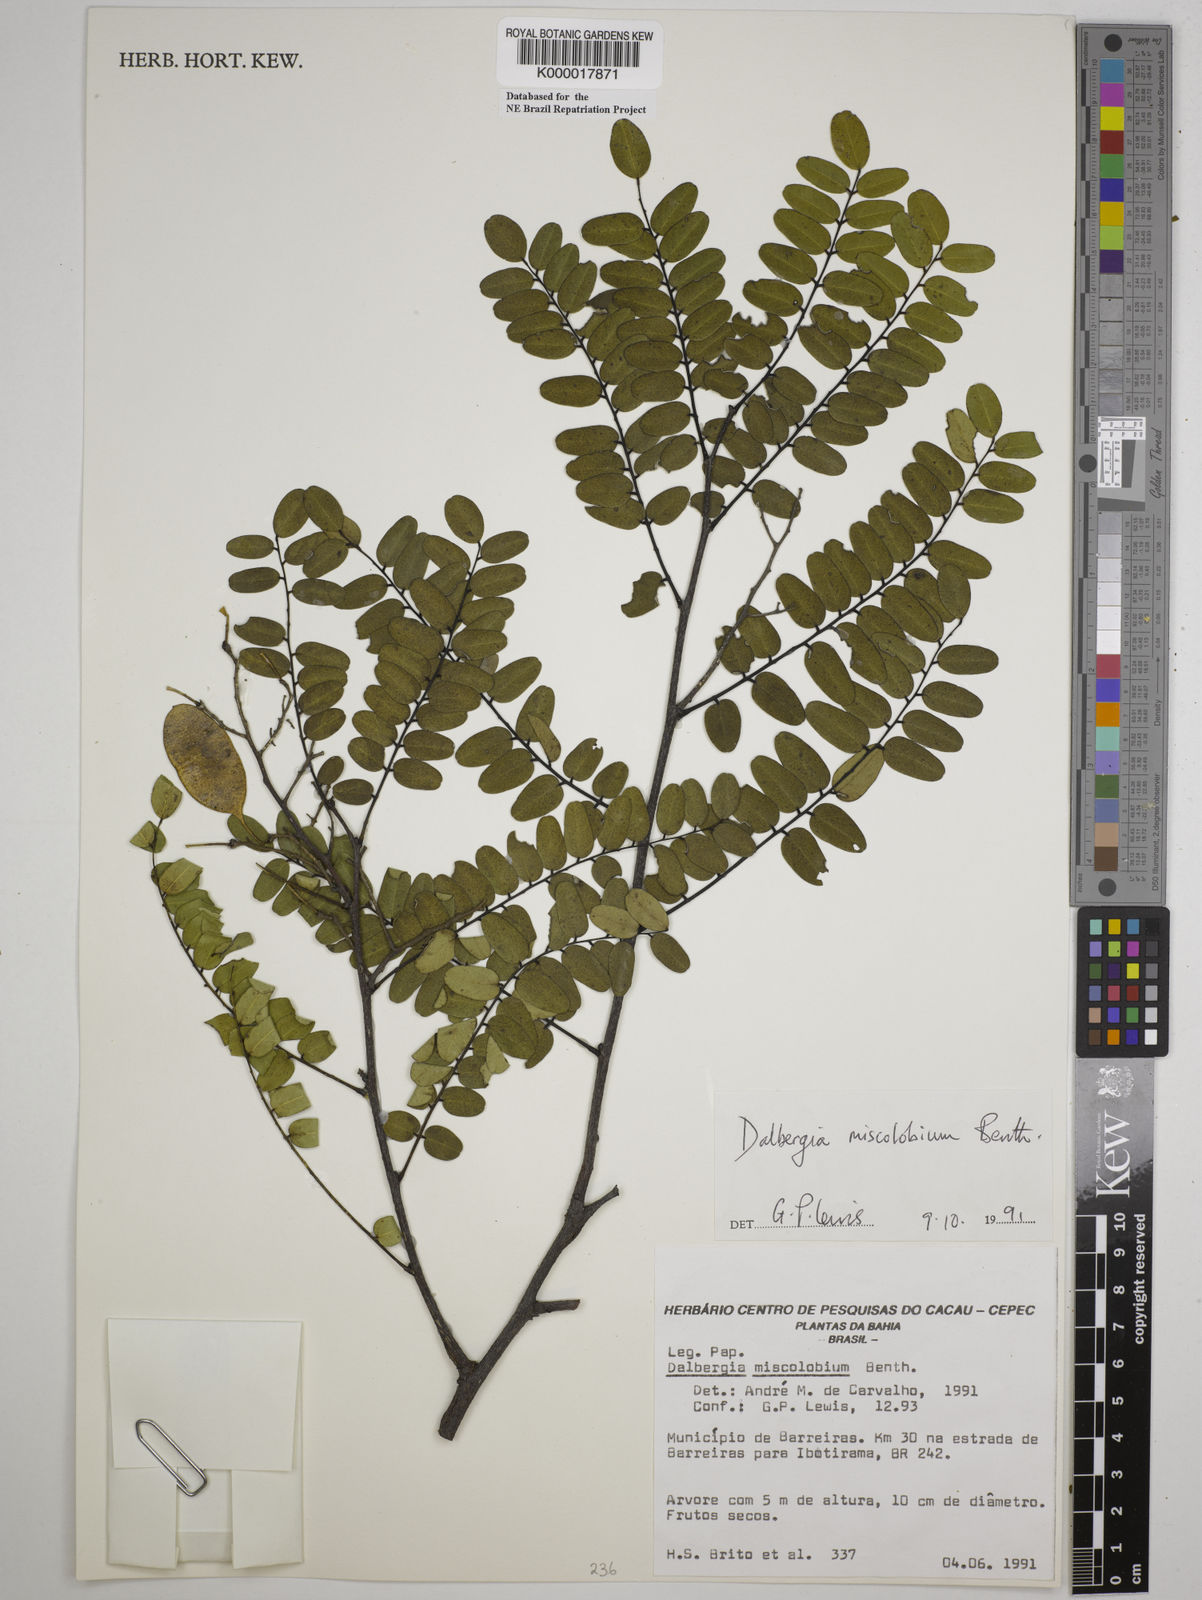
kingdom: Plantae
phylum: Tracheophyta
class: Magnoliopsida
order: Fabales
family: Fabaceae
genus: Dalbergia
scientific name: Dalbergia miscolobium
